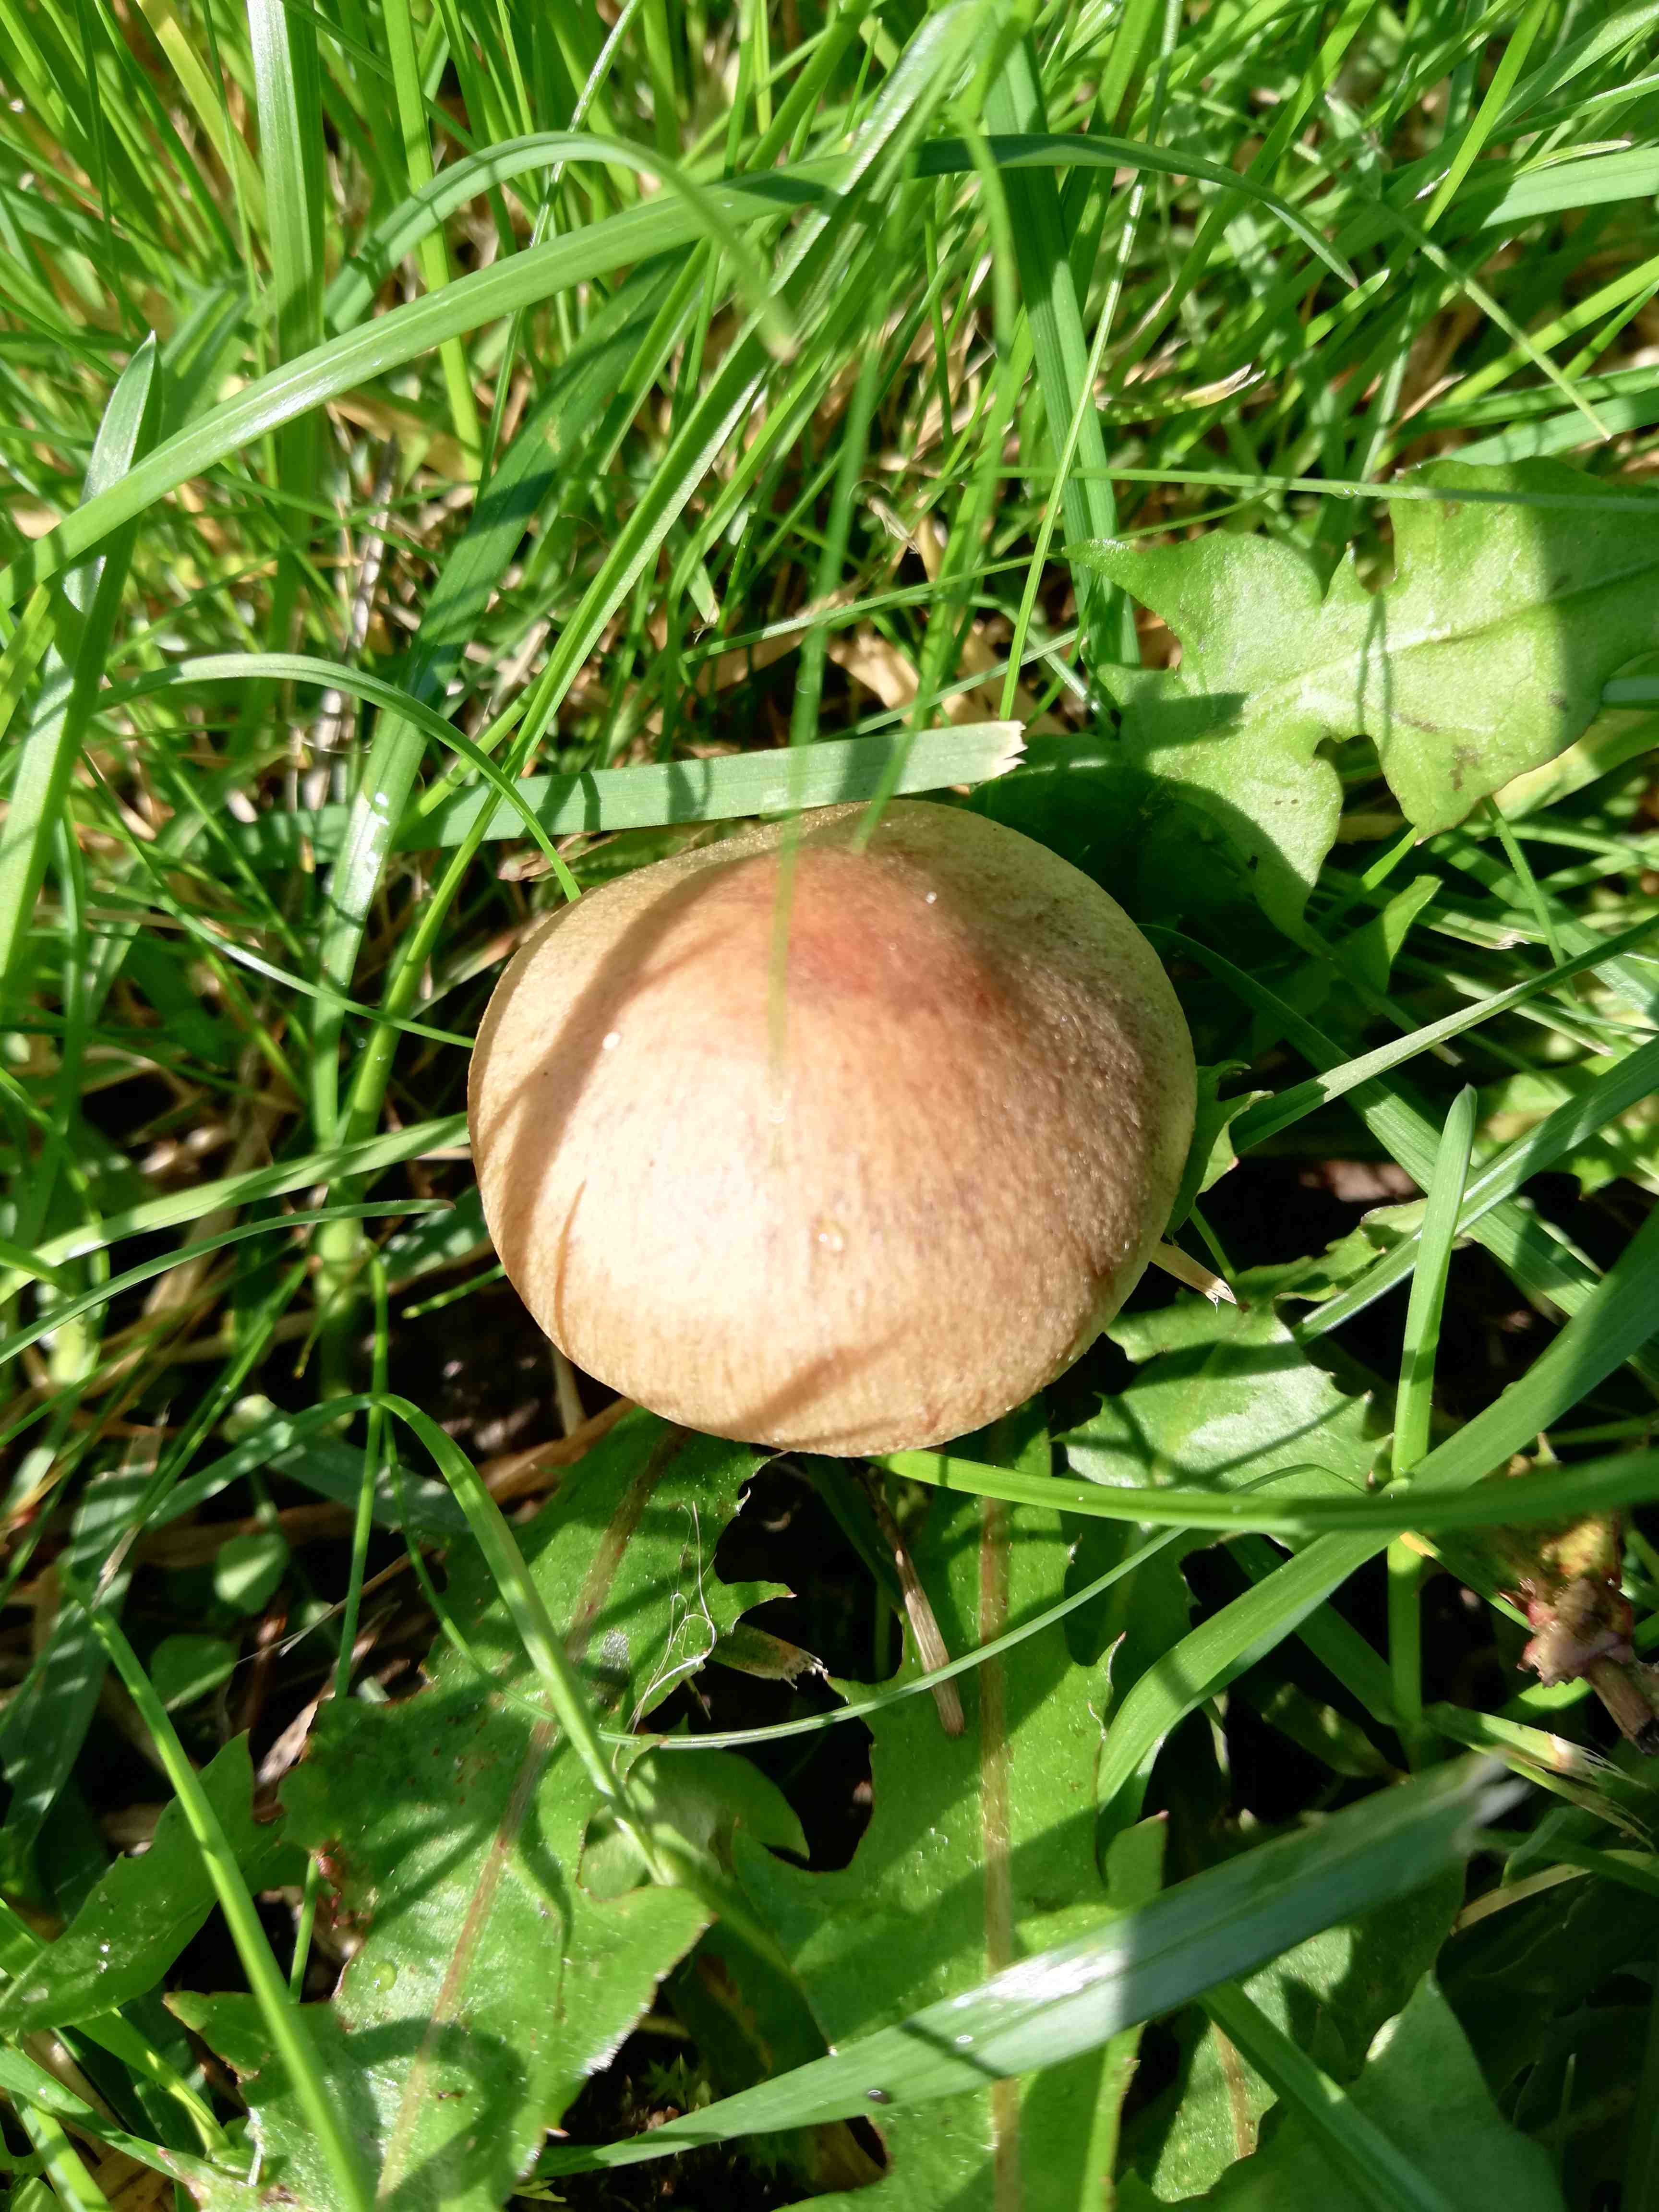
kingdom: Fungi
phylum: Basidiomycota
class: Agaricomycetes
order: Agaricales
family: Psathyrellaceae
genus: Lacrymaria
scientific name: Lacrymaria lacrymabunda
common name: grædende mørkhat
